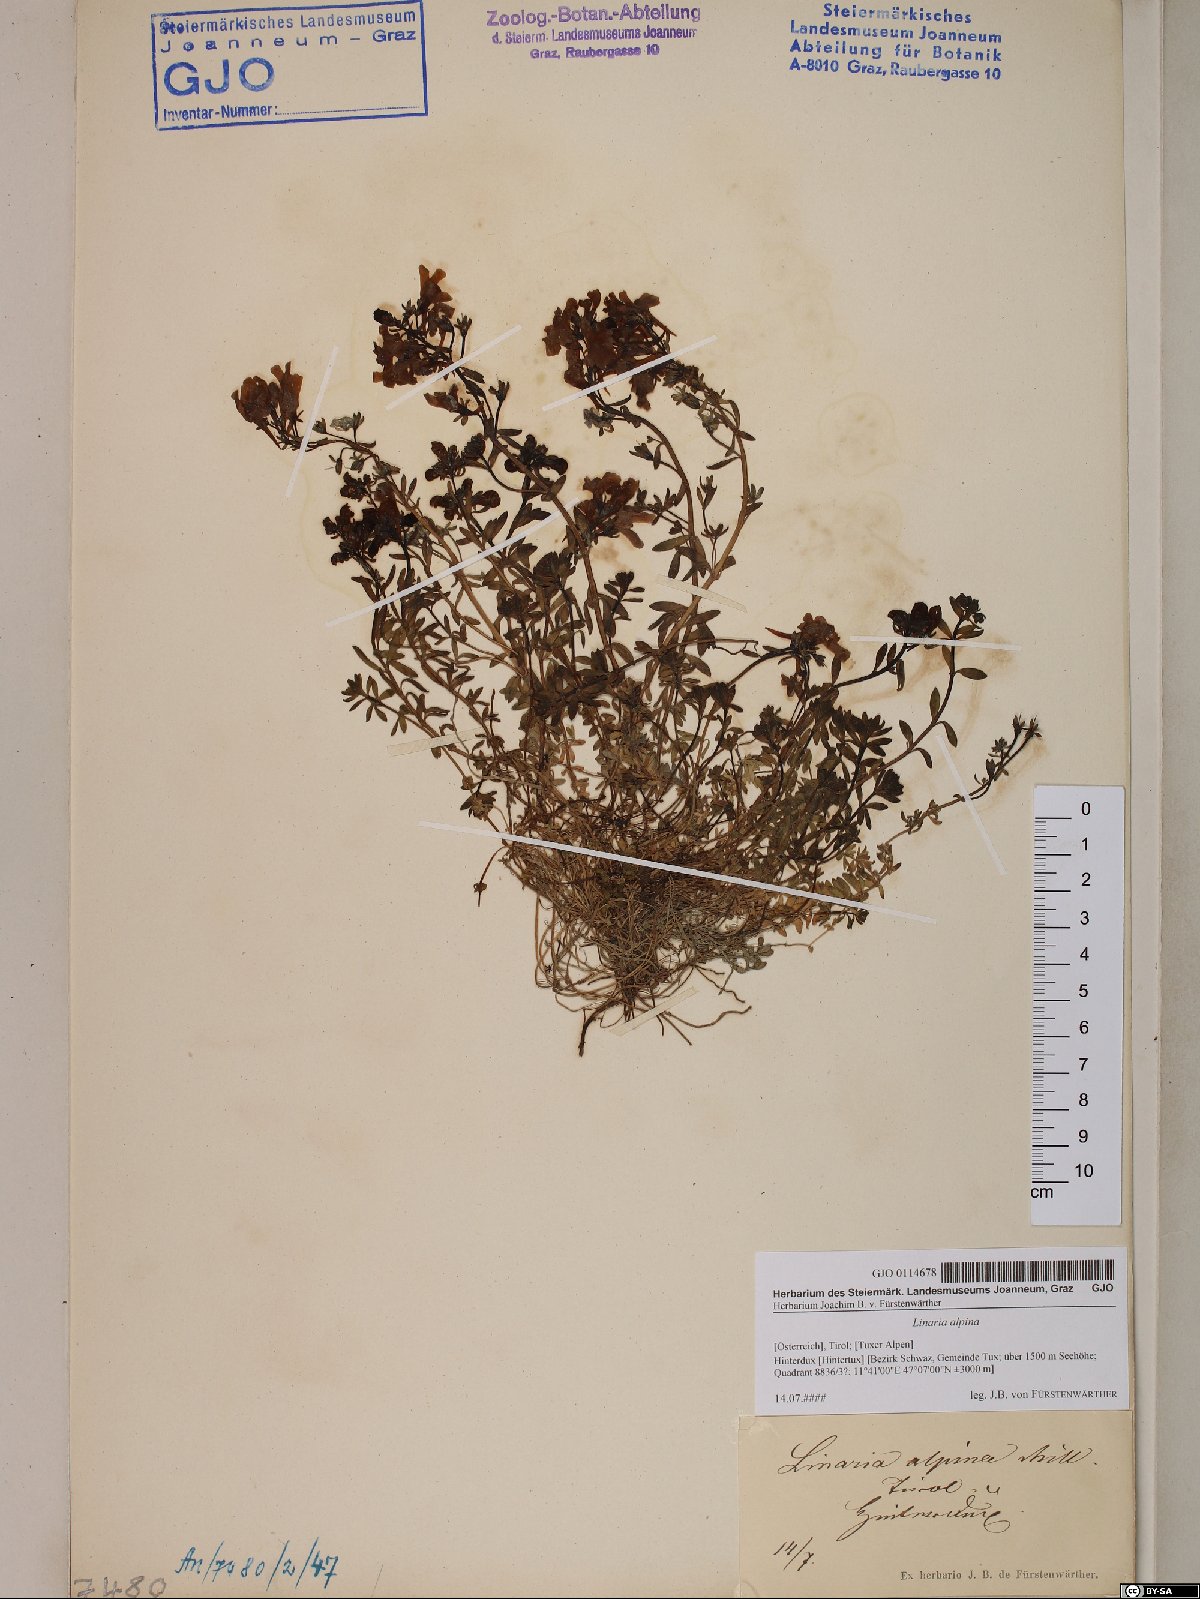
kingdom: Plantae
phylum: Tracheophyta
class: Magnoliopsida
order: Lamiales
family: Plantaginaceae
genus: Linaria
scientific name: Linaria alpina
